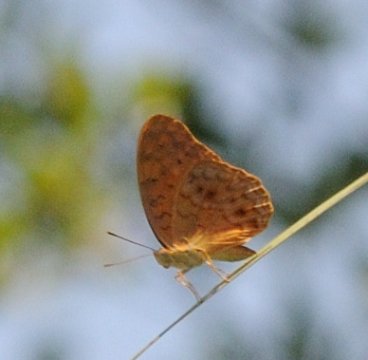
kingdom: Animalia
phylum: Arthropoda
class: Insecta
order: Lepidoptera
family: Nymphalidae
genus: Phalanta
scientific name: Phalanta phalantha
